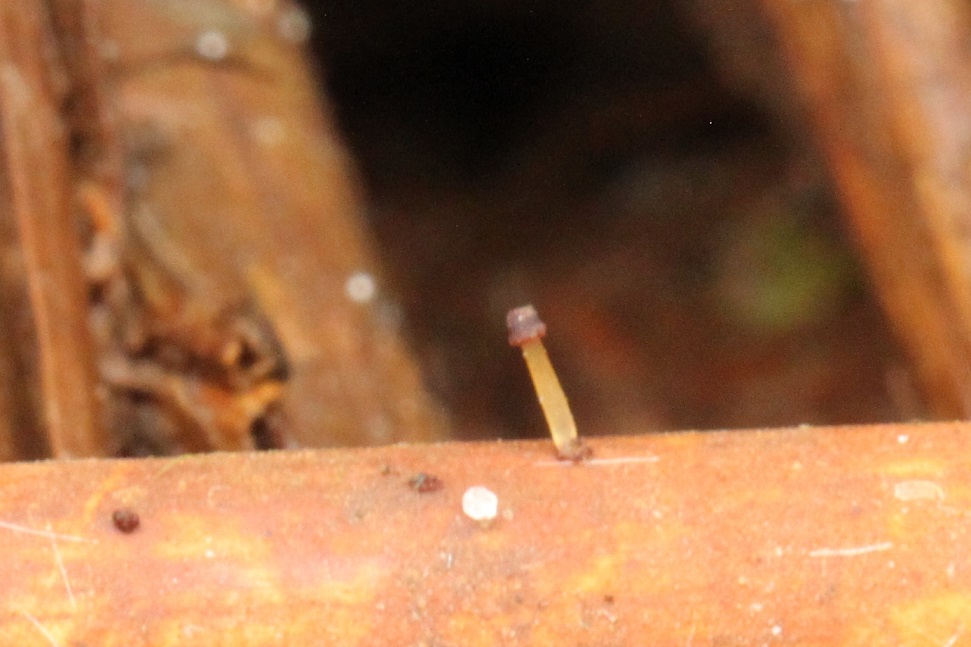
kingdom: Fungi
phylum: Basidiomycota
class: Agaricomycetes
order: Agaricales
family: Marasmiaceae
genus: Marasmius
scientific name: Marasmius curreyi
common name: teglrød bruskhat
